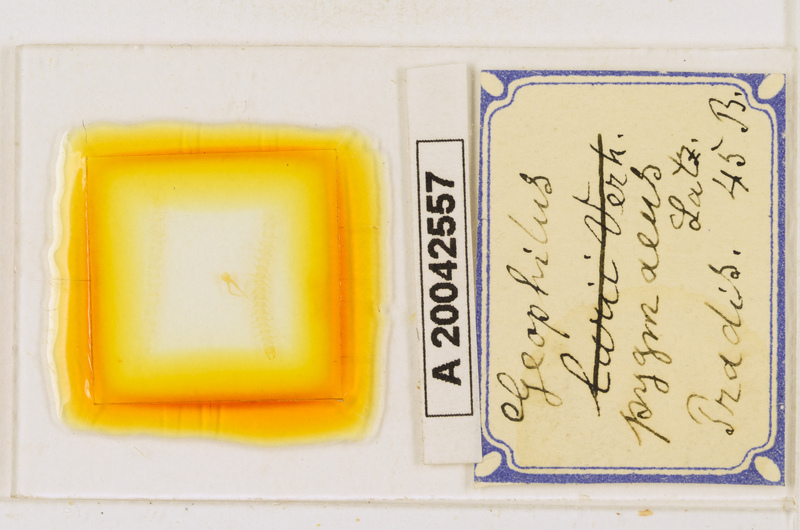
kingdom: Animalia
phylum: Arthropoda
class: Chilopoda
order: Geophilomorpha
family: Geophilidae
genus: Geophilus
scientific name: Geophilus pygmaeus
